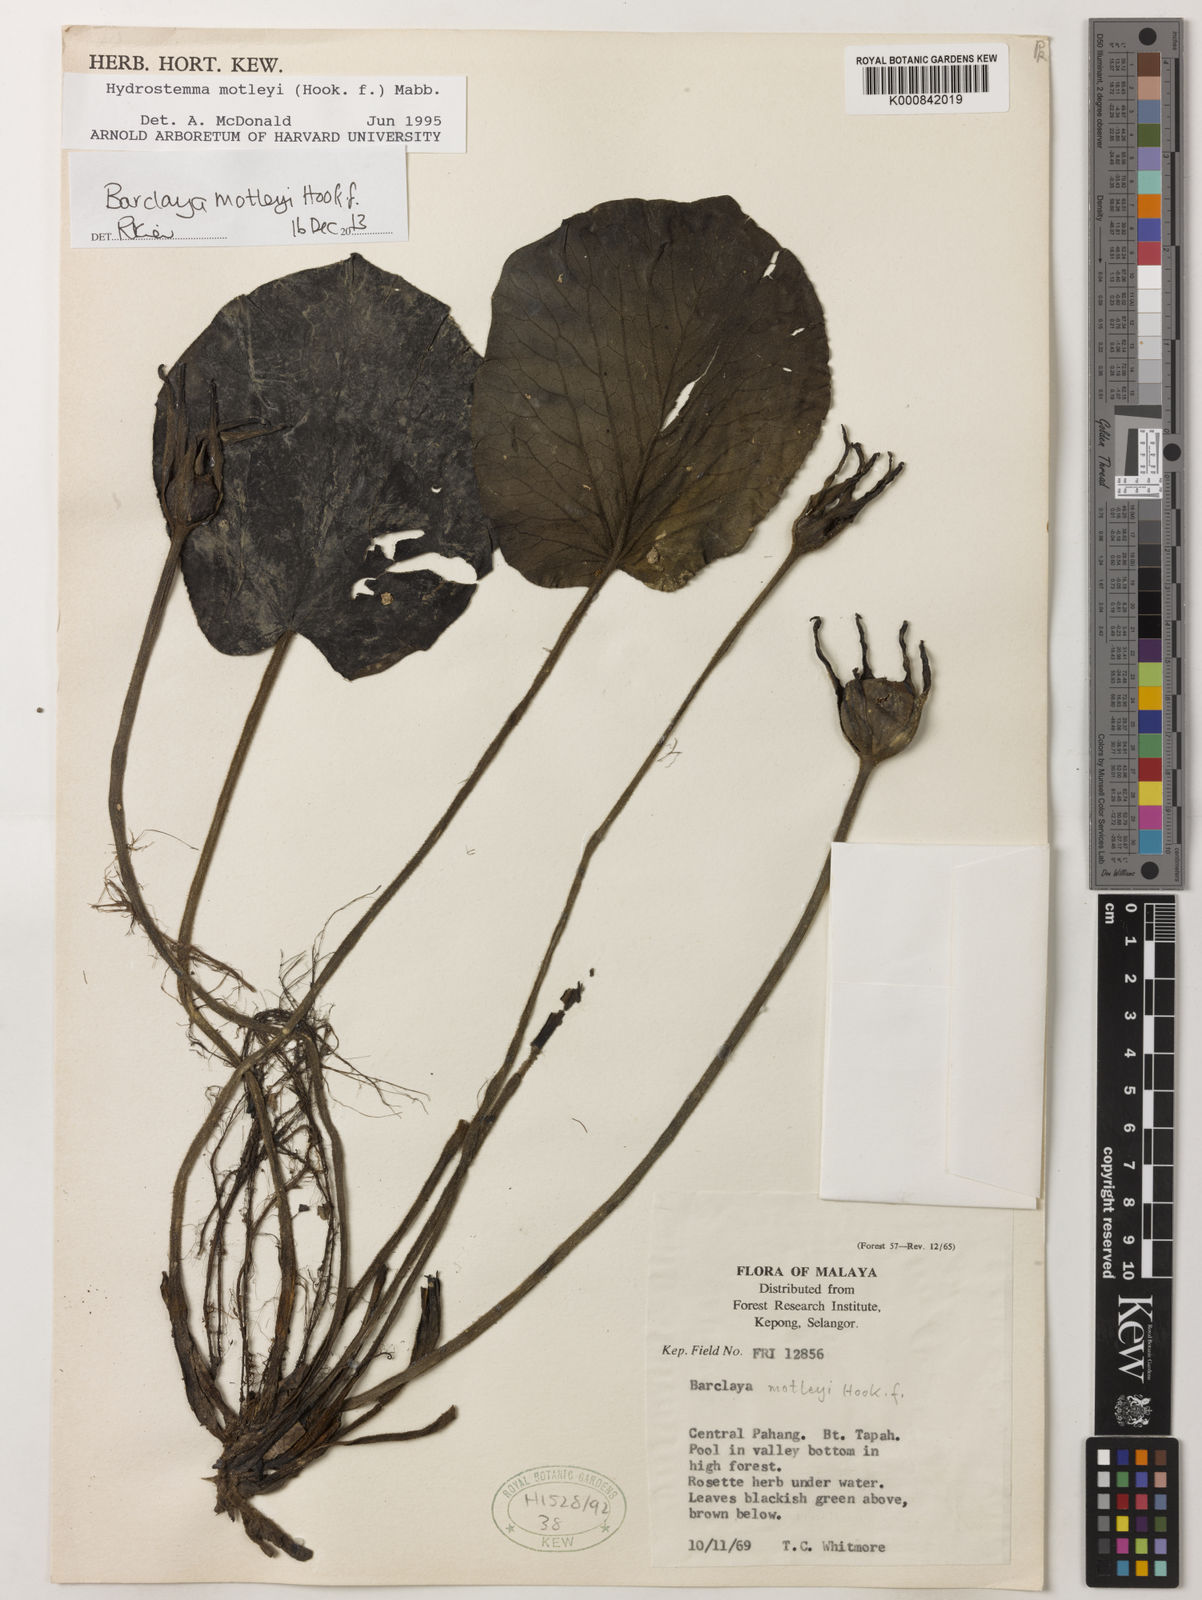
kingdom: Plantae
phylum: Tracheophyta
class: Magnoliopsida
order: Nymphaeales
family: Nymphaeaceae
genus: Barclaya
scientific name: Barclaya motleyi
